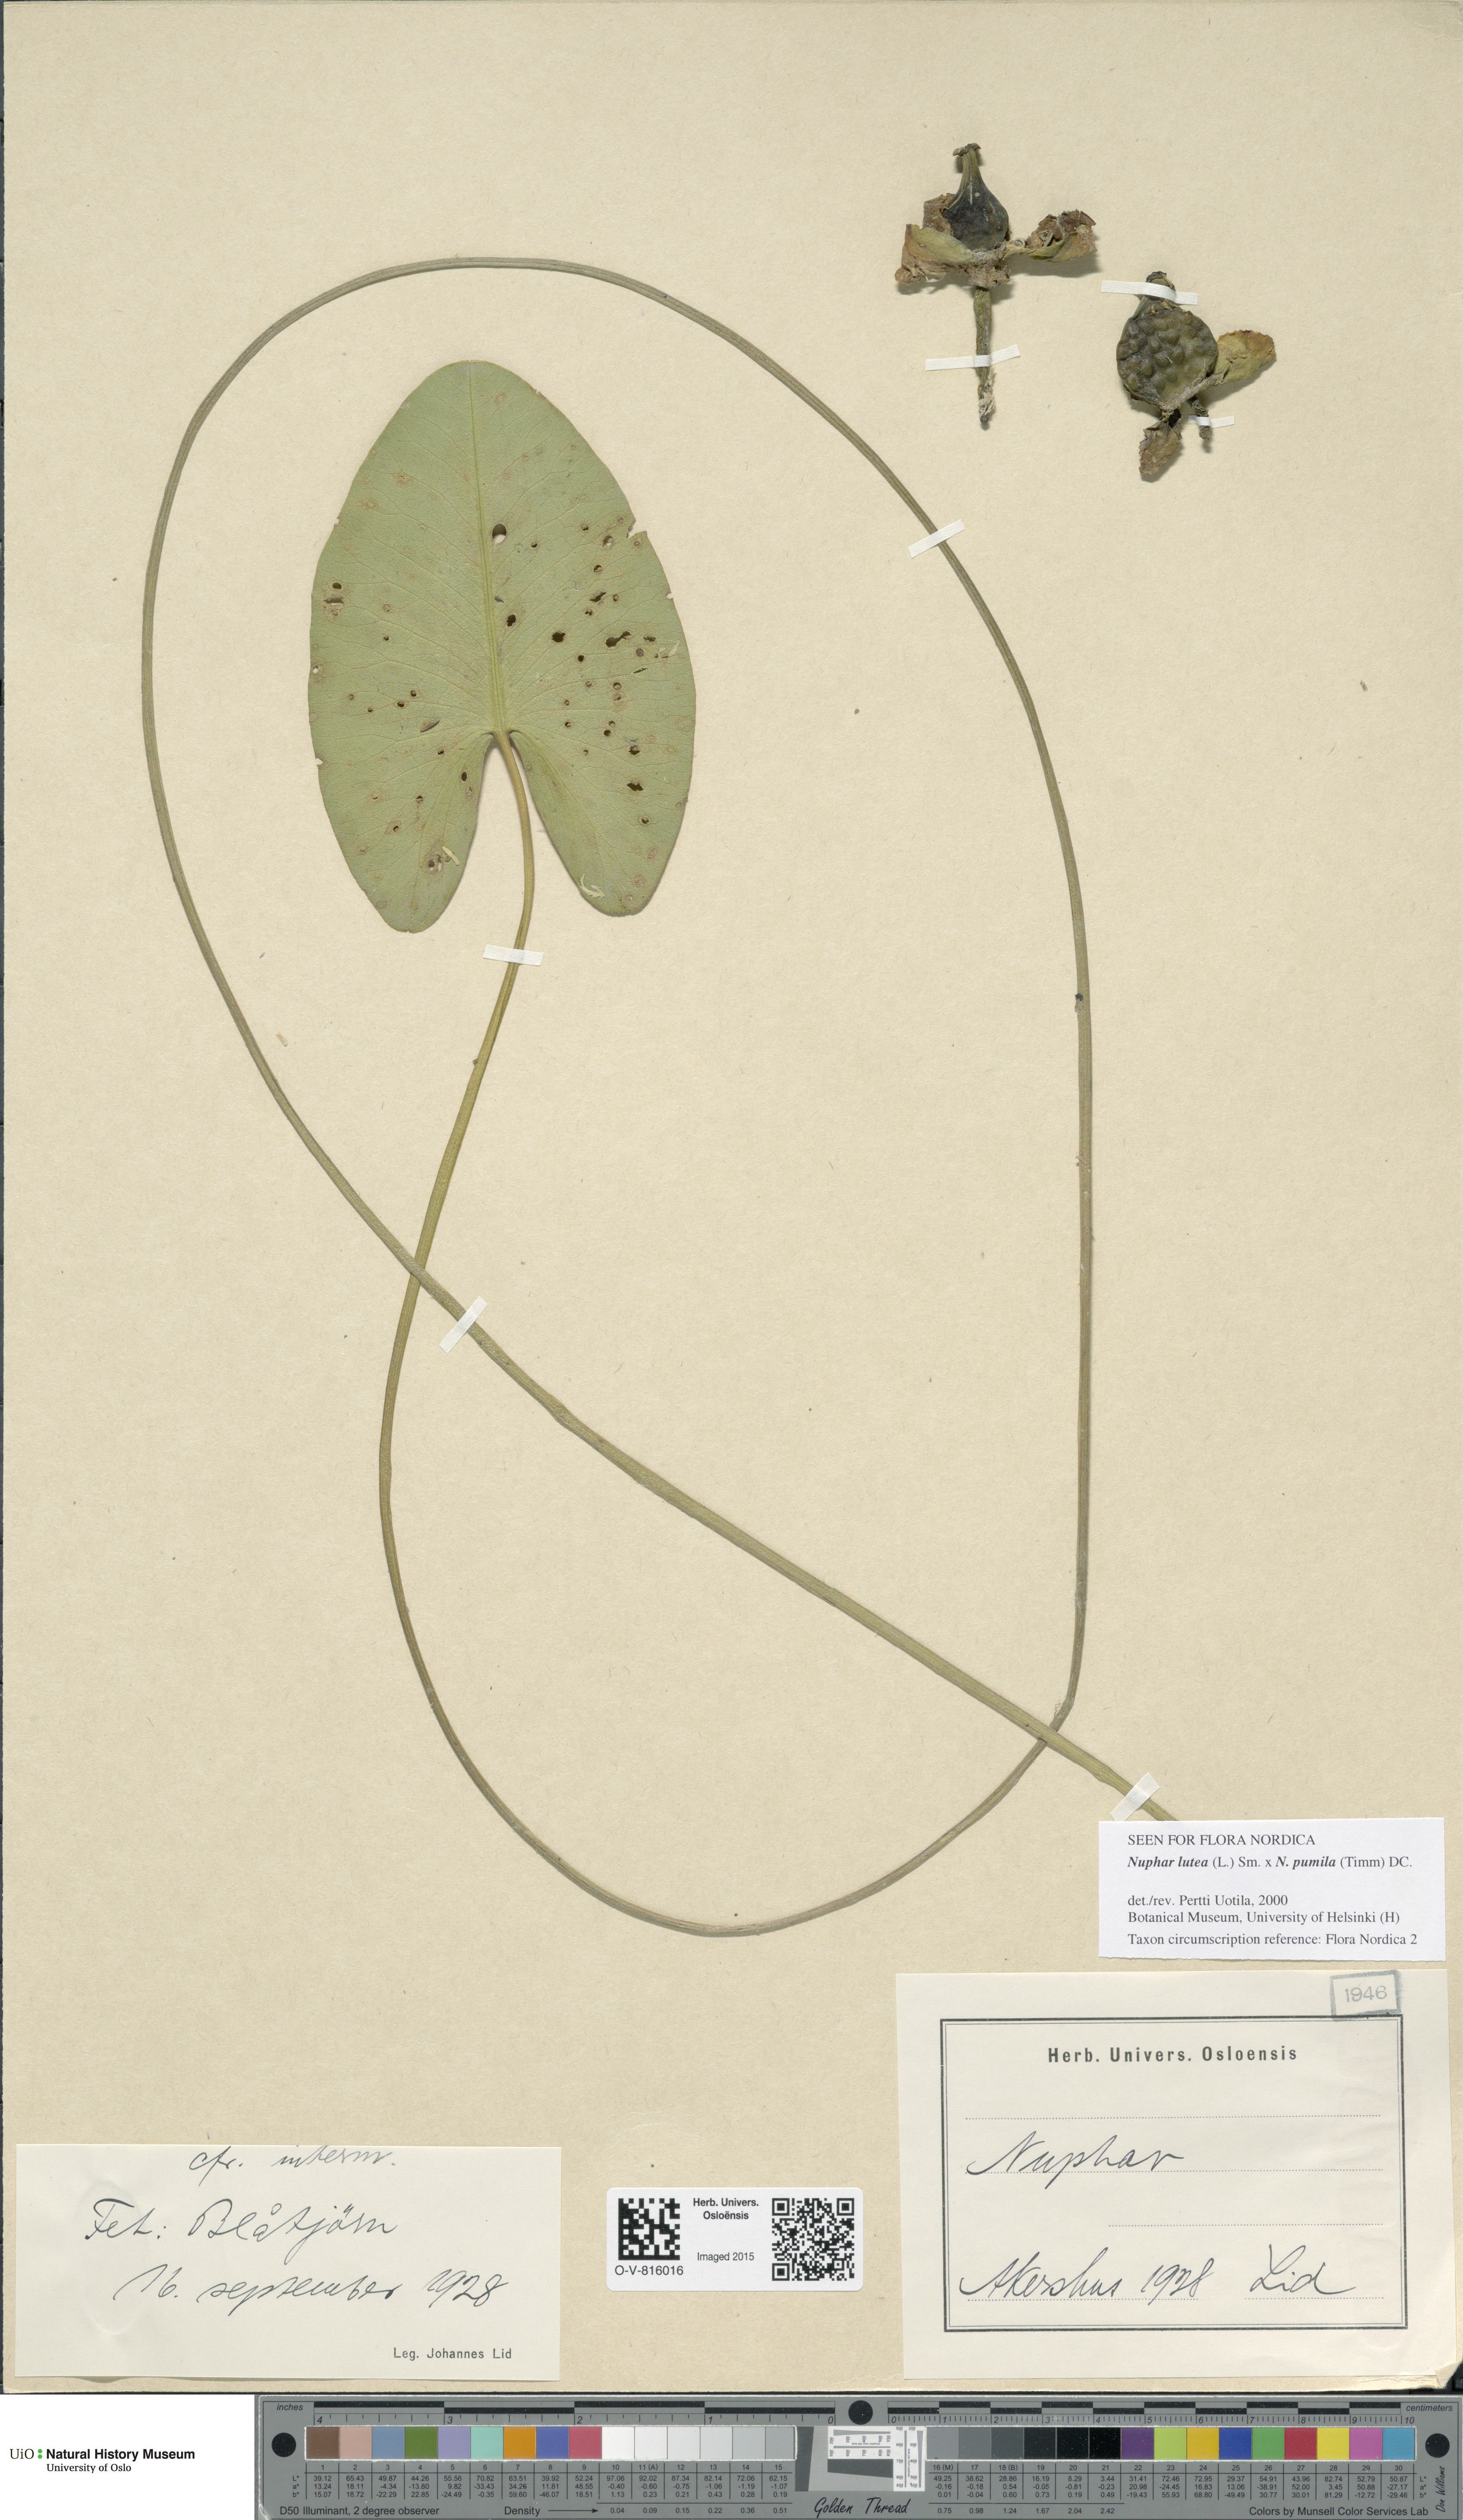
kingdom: Plantae
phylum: Tracheophyta
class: Magnoliopsida
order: Nymphaeales
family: Nymphaeaceae
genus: Nuphar
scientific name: Nuphar
